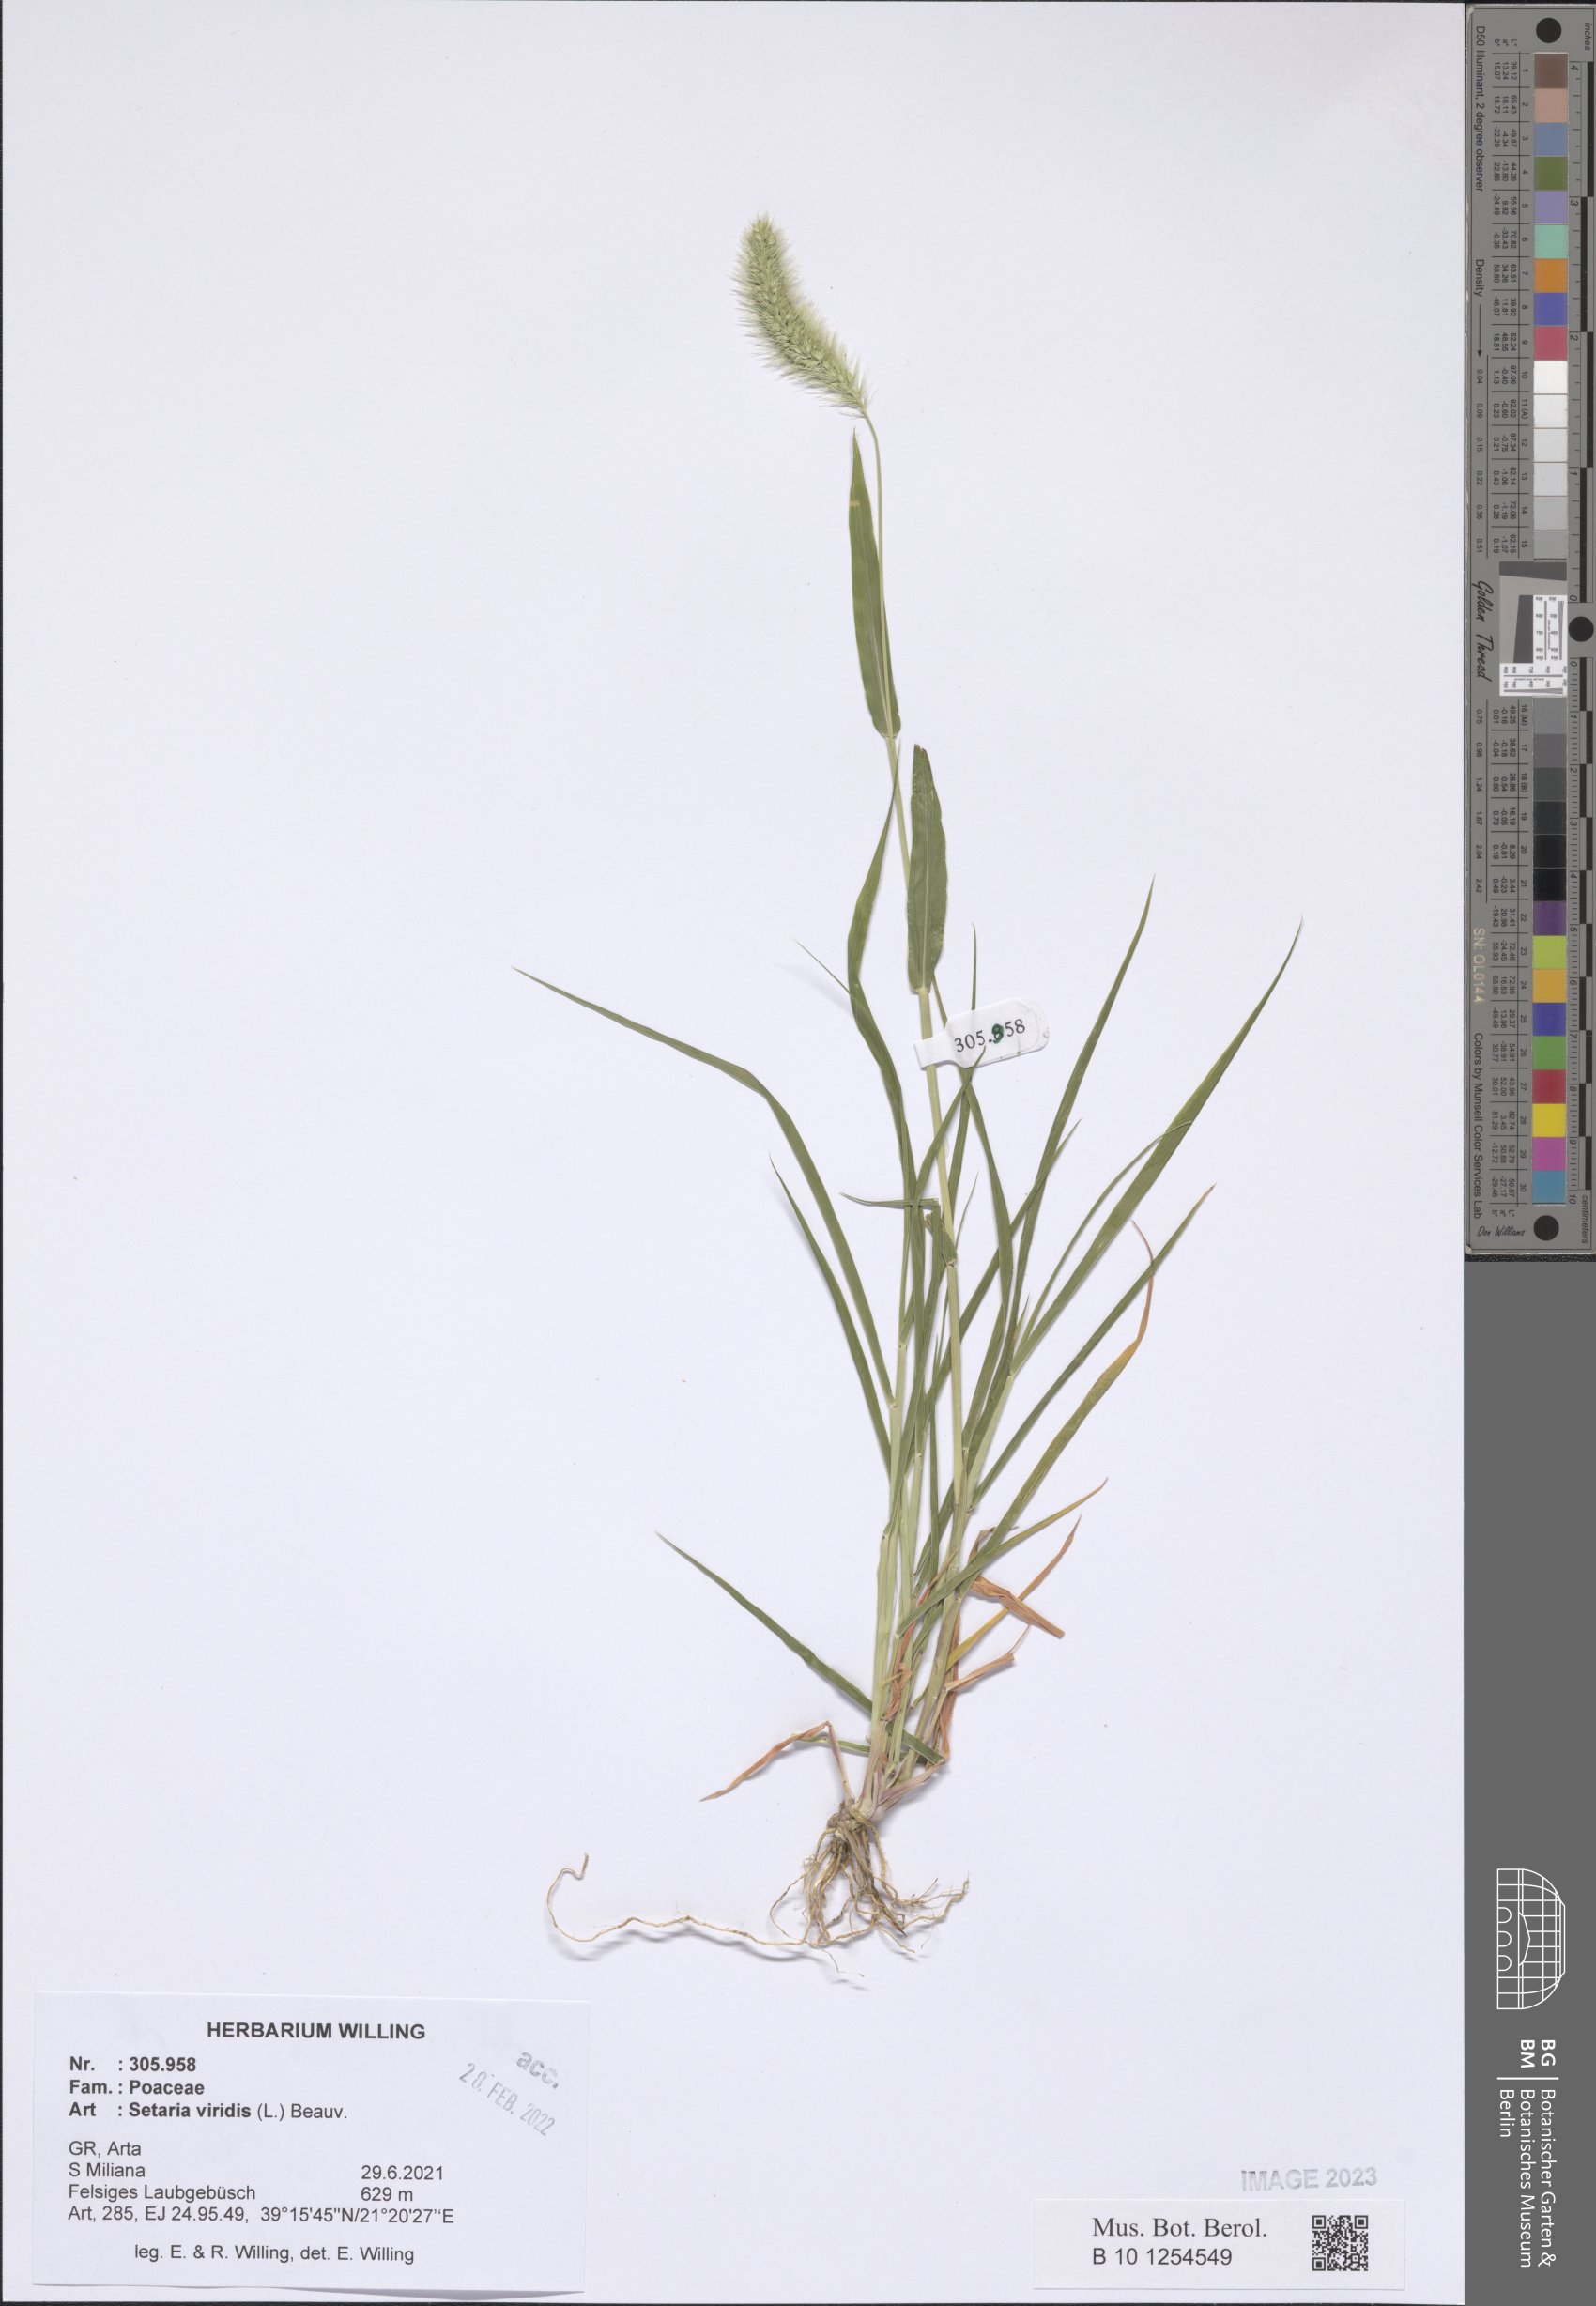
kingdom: Plantae
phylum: Tracheophyta
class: Liliopsida
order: Poales
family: Poaceae
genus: Setaria
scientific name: Setaria viridis
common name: Green bristlegrass
